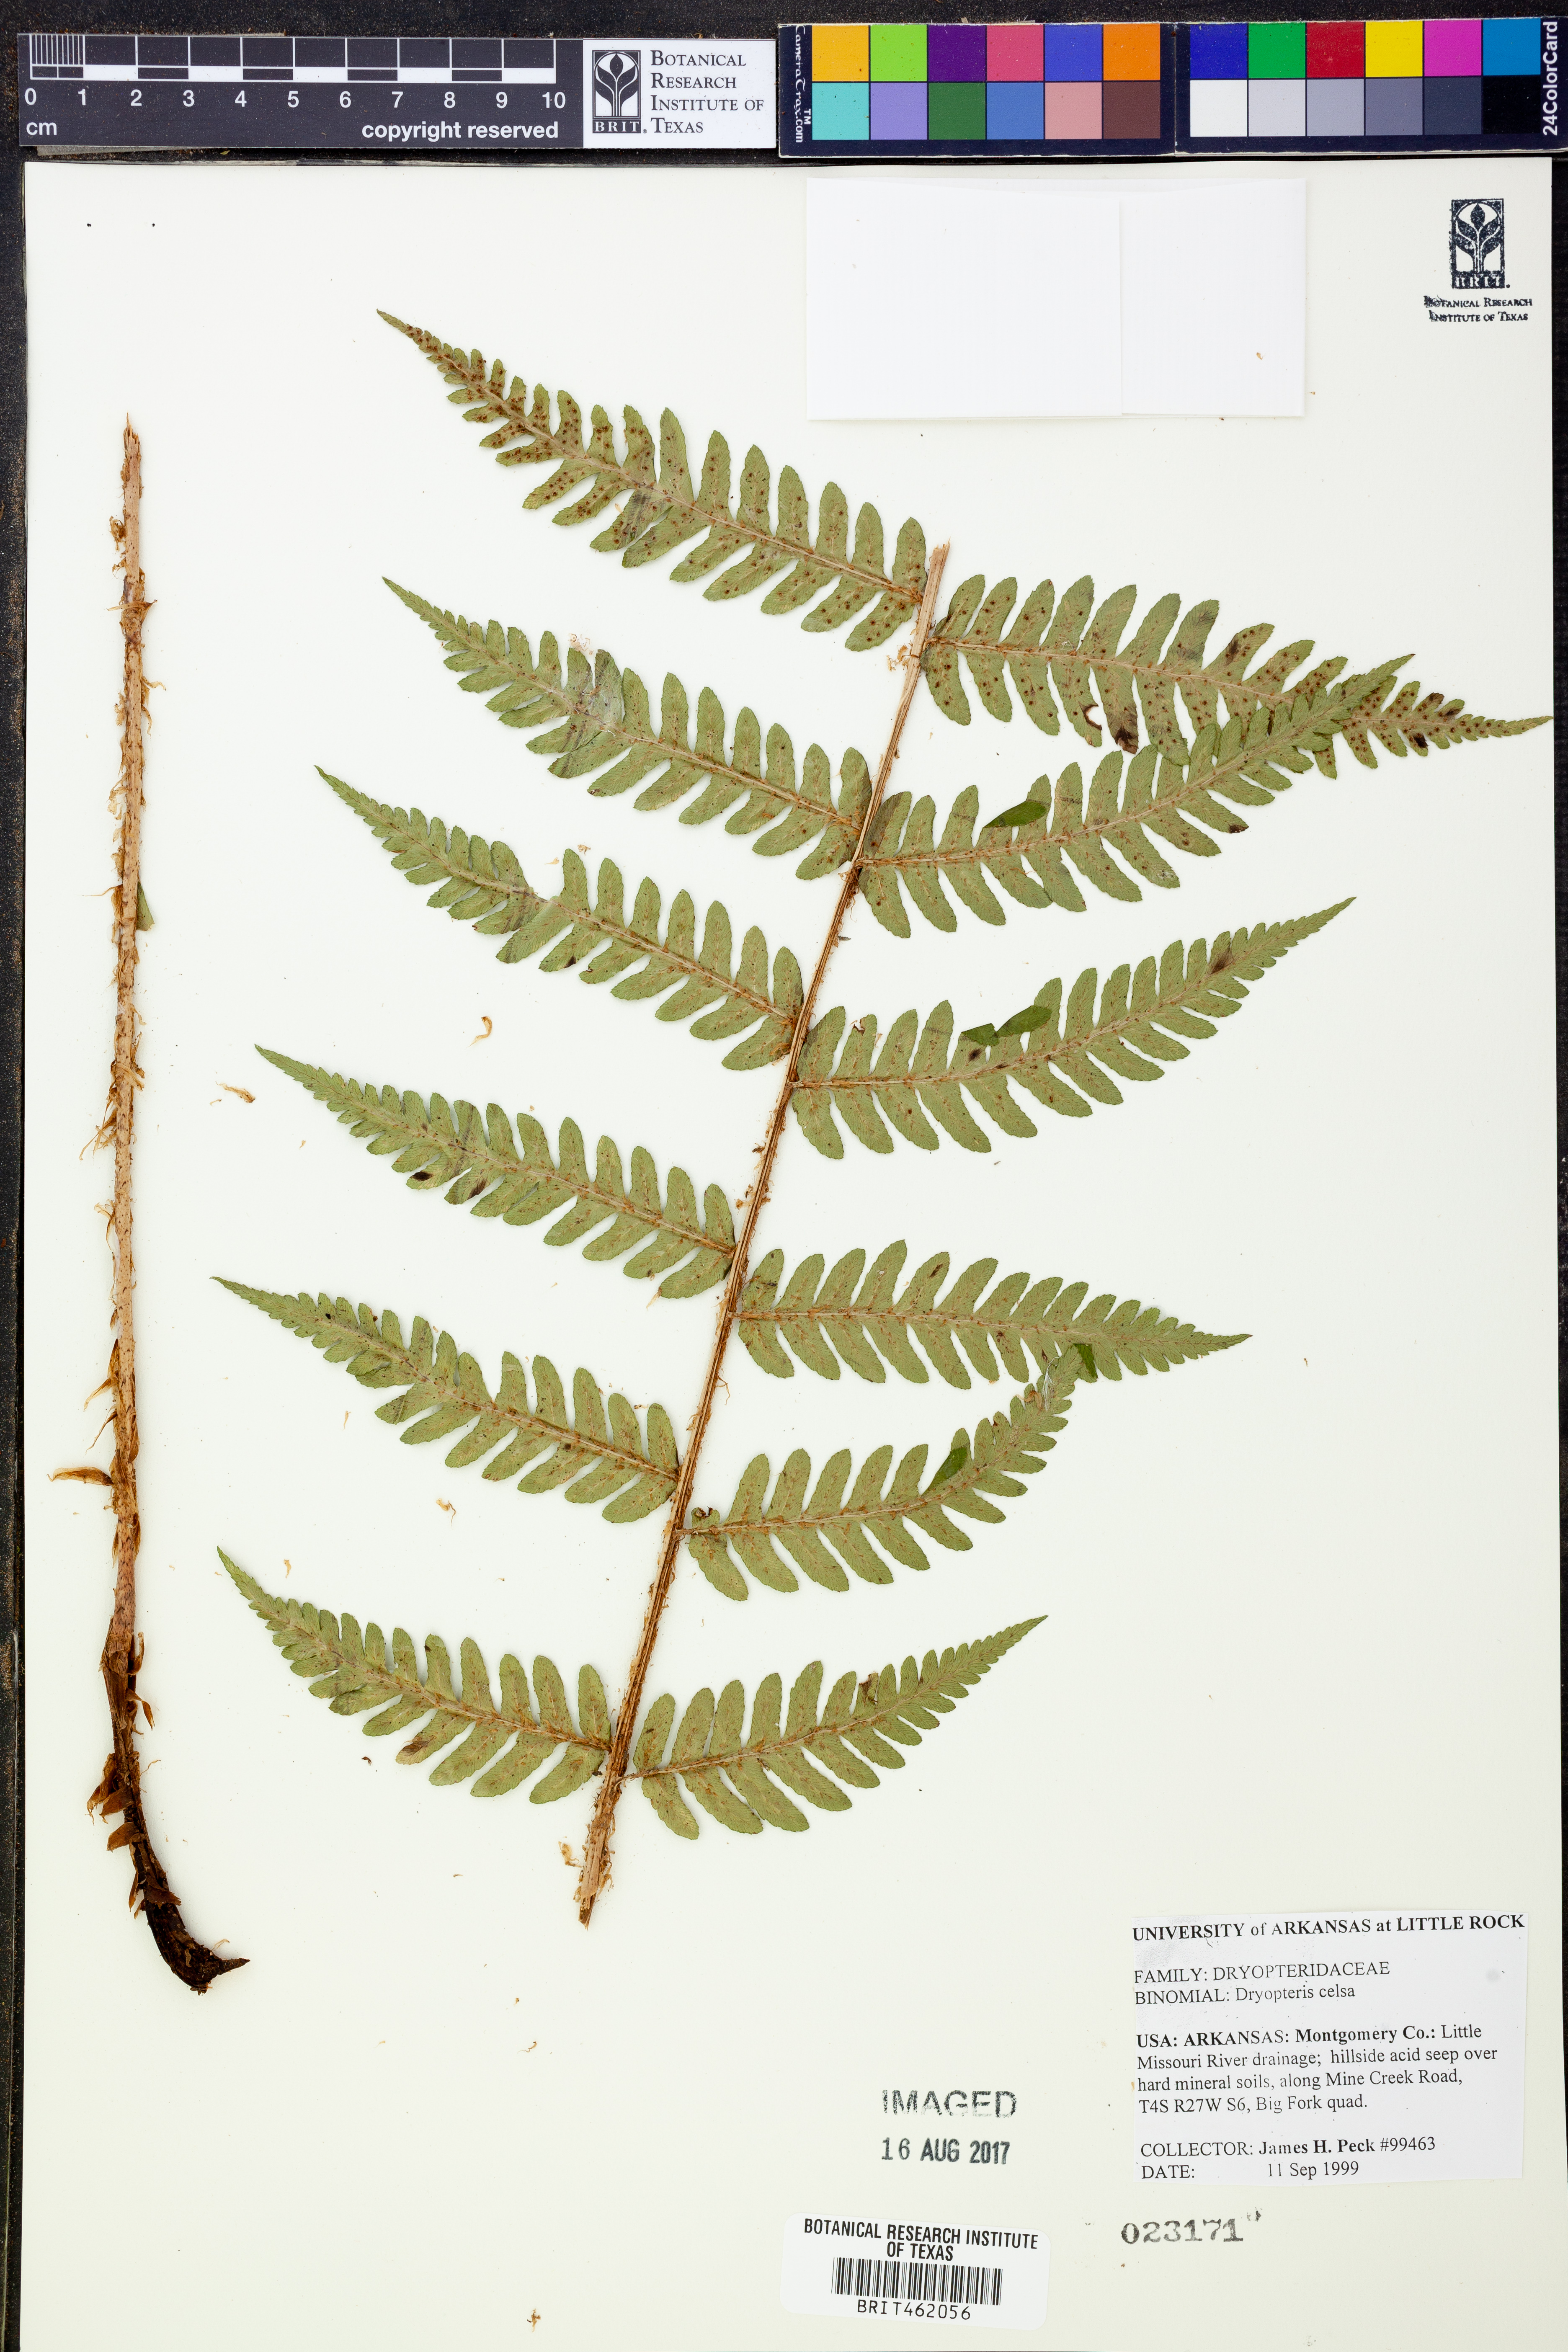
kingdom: Plantae
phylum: Tracheophyta
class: Polypodiopsida
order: Polypodiales
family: Dryopteridaceae
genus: Dryopteris
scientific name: Dryopteris celsa
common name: Log fern
